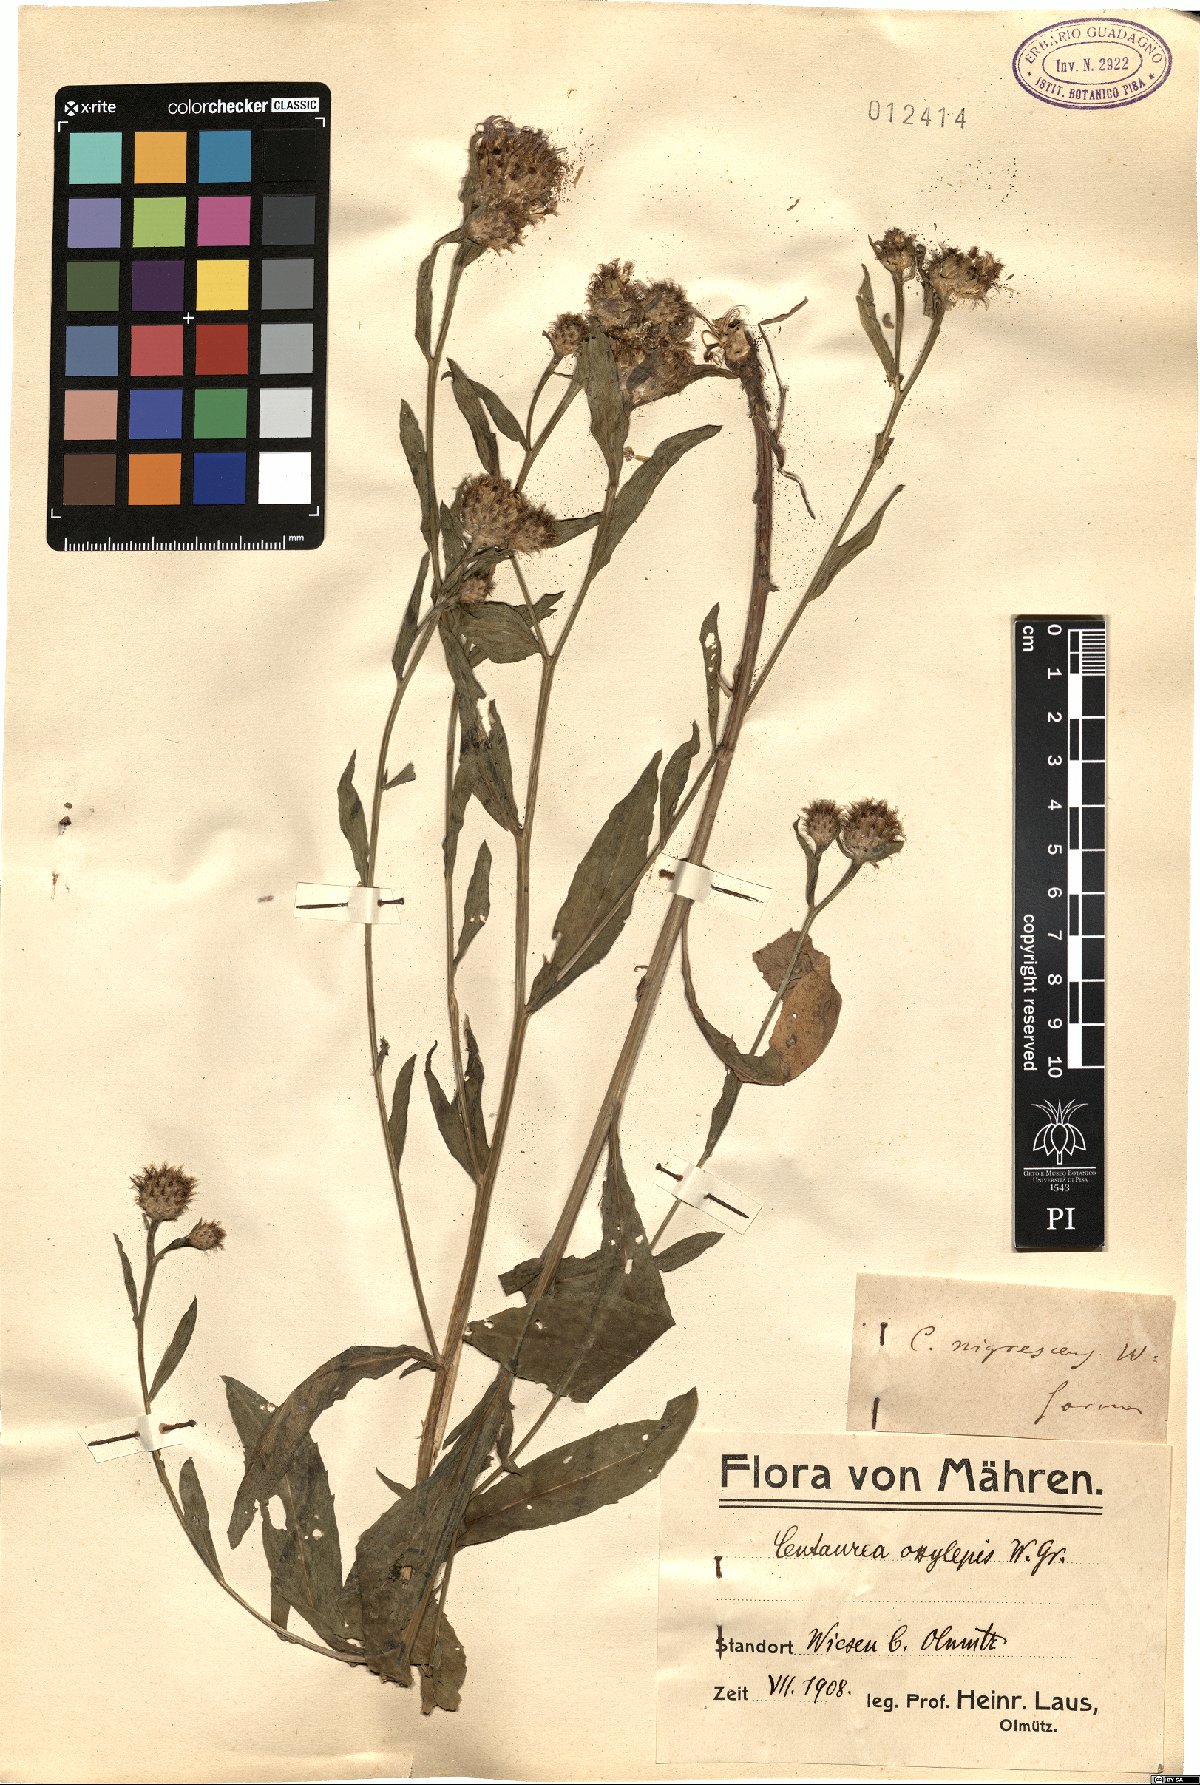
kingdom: Plantae
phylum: Tracheophyta
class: Magnoliopsida
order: Asterales
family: Asteraceae
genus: Centaurea
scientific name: Centaurea oxylepis
